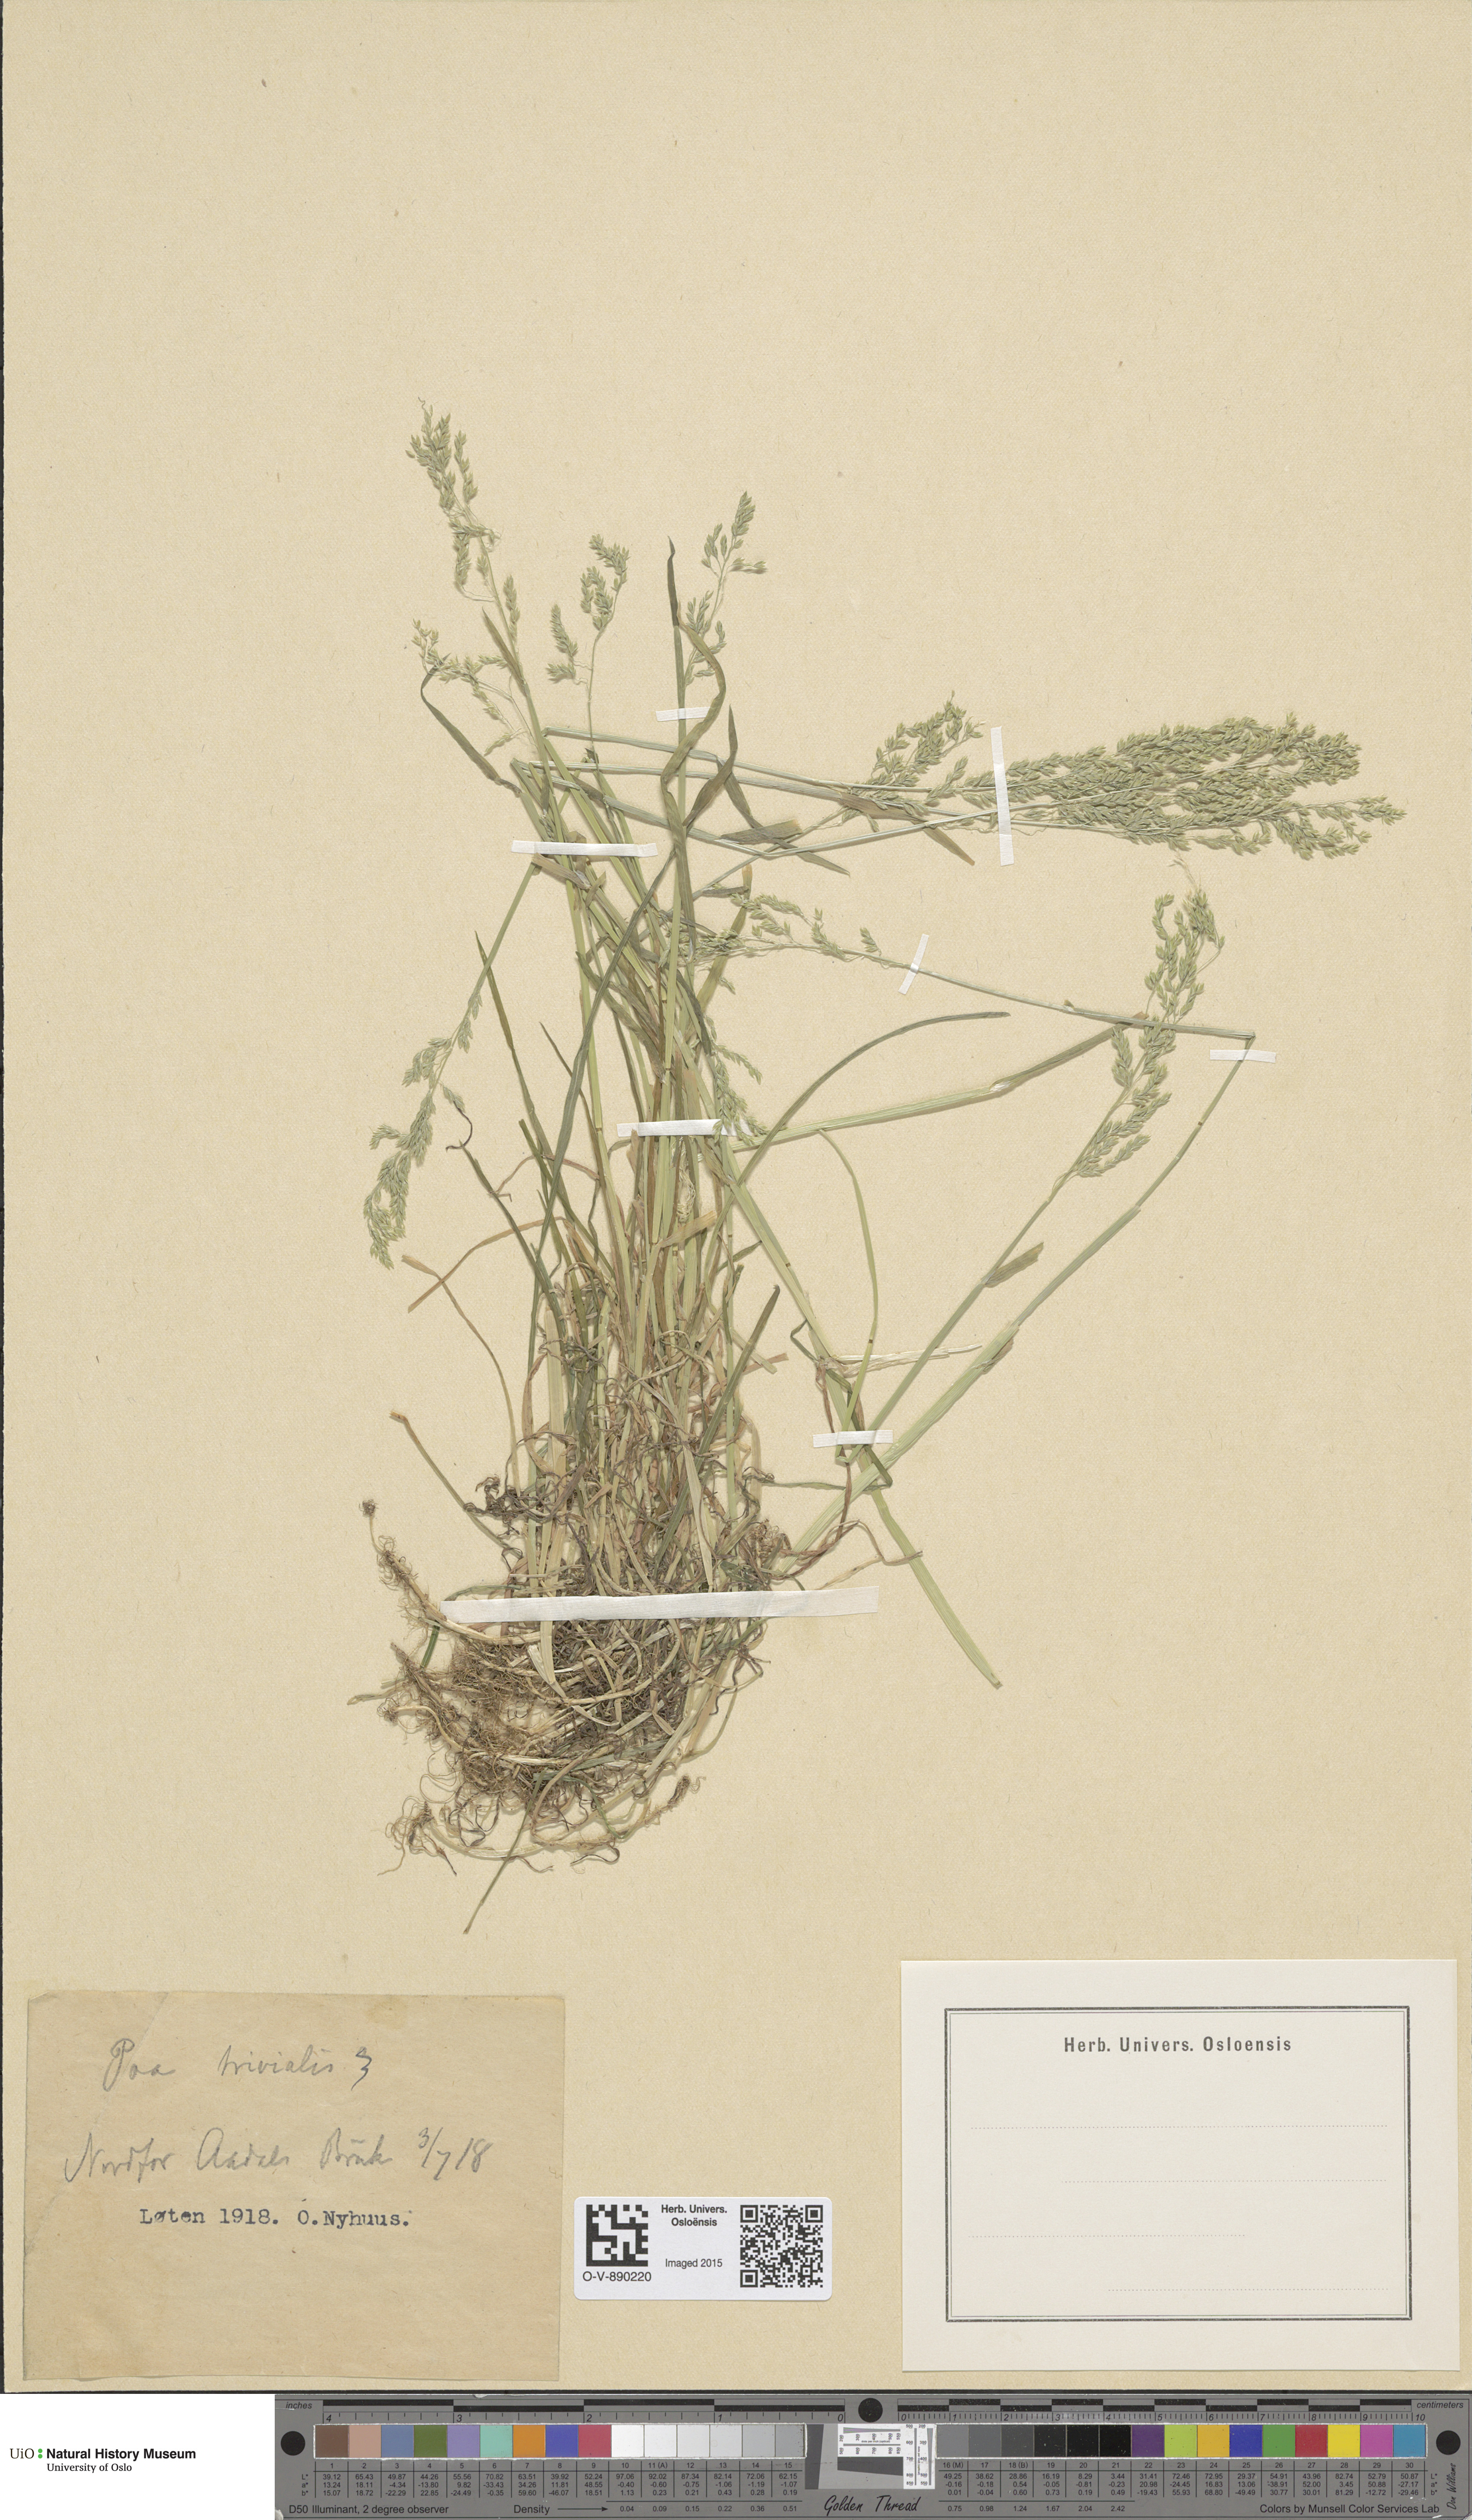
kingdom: Plantae
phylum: Tracheophyta
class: Liliopsida
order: Poales
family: Poaceae
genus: Poa
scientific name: Poa trivialis
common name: Rough bluegrass
